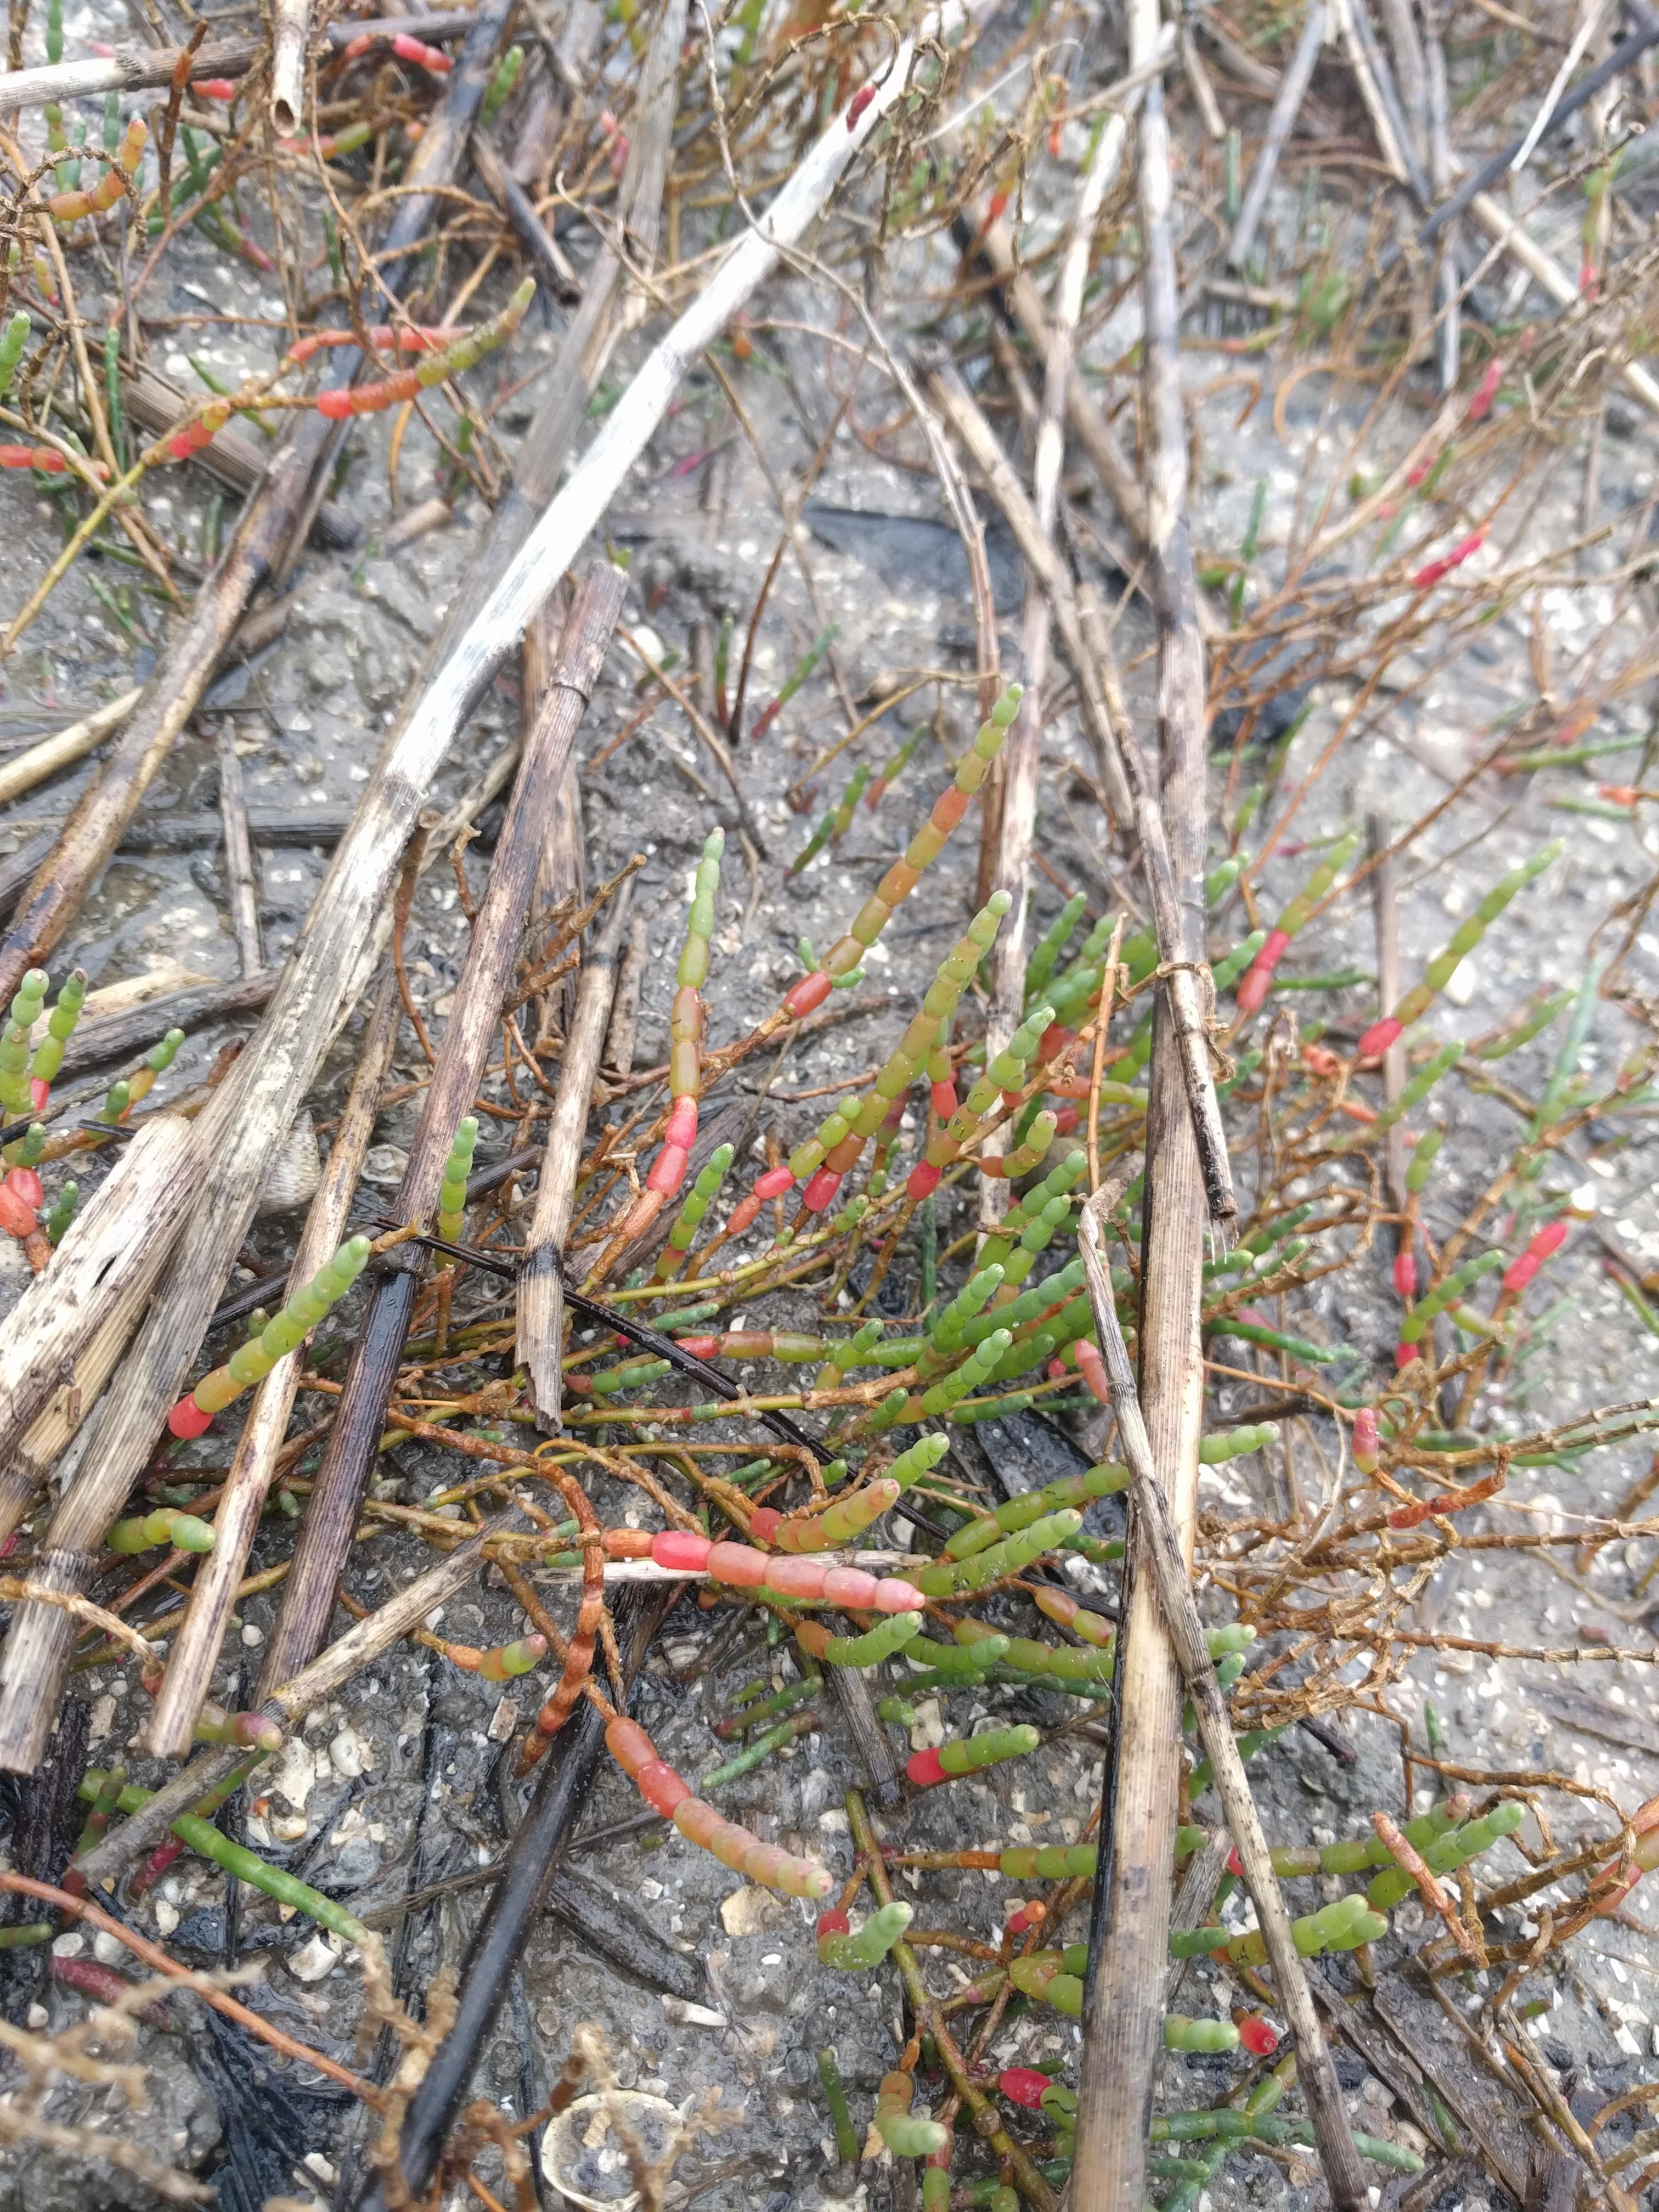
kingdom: Plantae
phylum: Tracheophyta
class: Magnoliopsida
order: Caryophyllales
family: Amaranthaceae
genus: Salicornia
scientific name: Salicornia virginica
